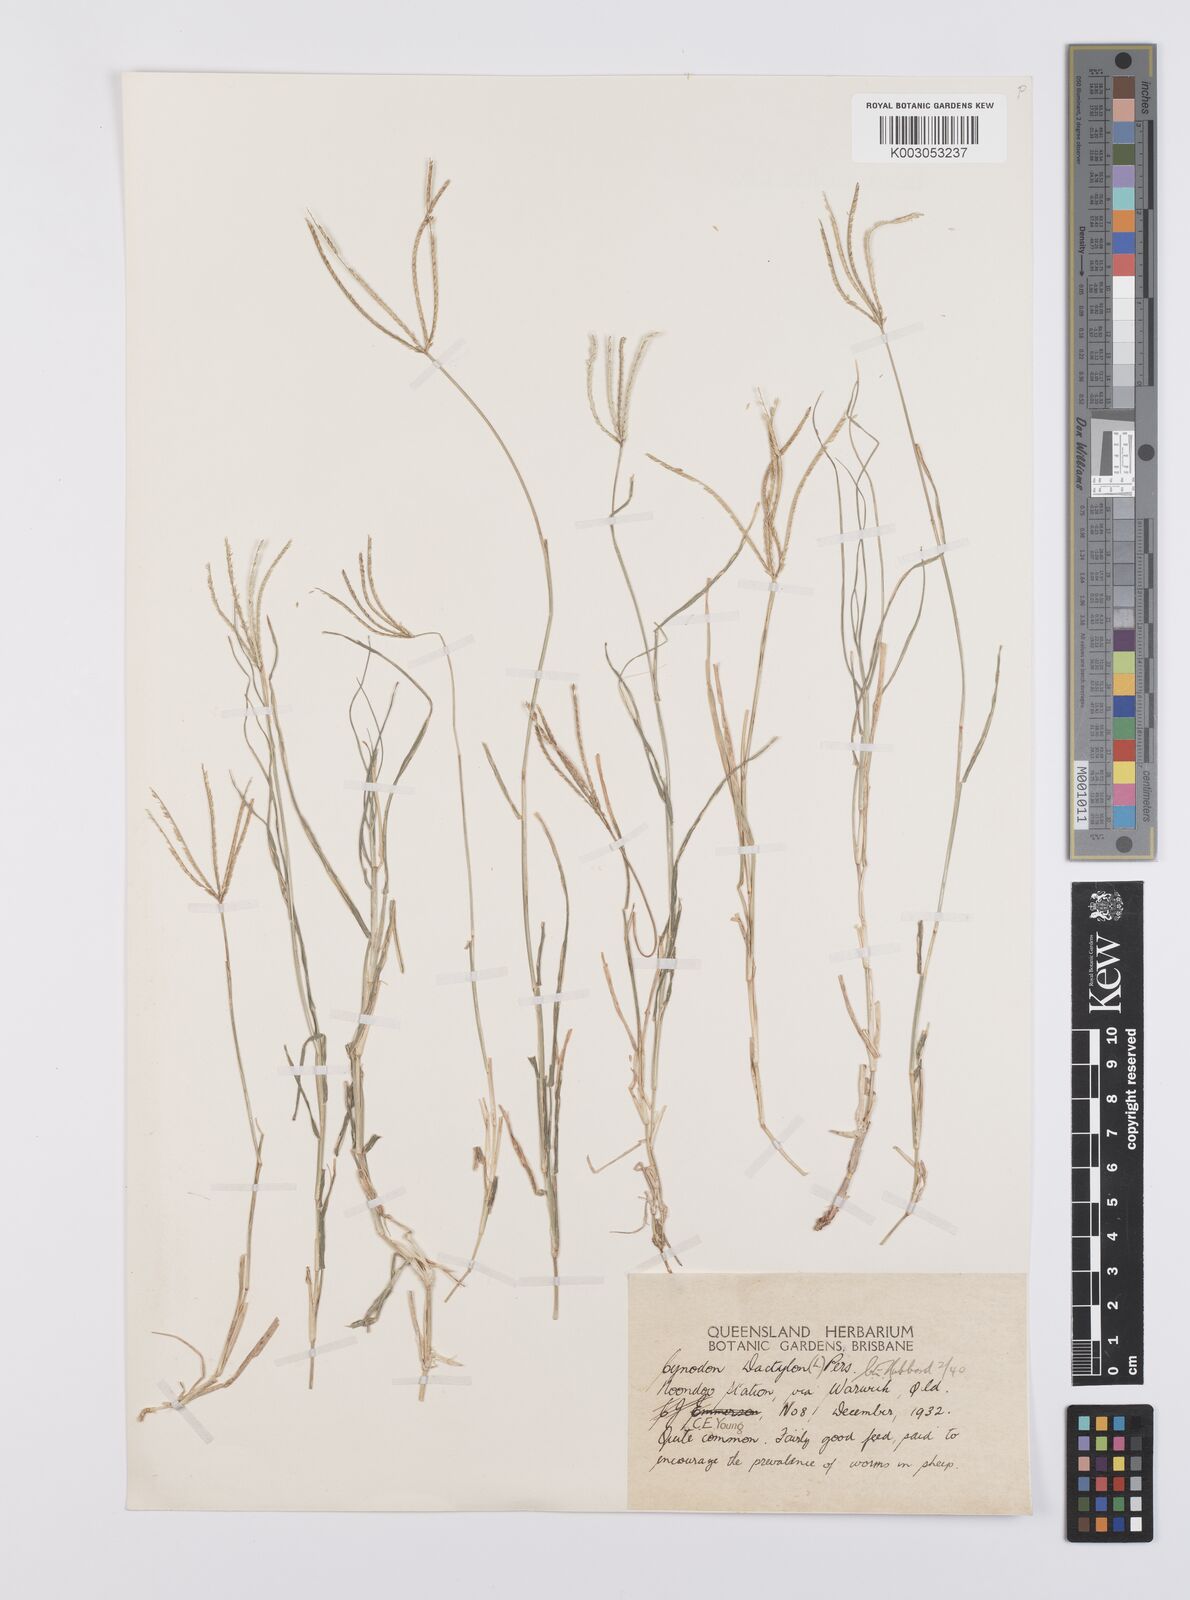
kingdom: Plantae
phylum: Tracheophyta
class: Liliopsida
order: Poales
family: Poaceae
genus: Cynodon
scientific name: Cynodon dactylon
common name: Bermuda grass
